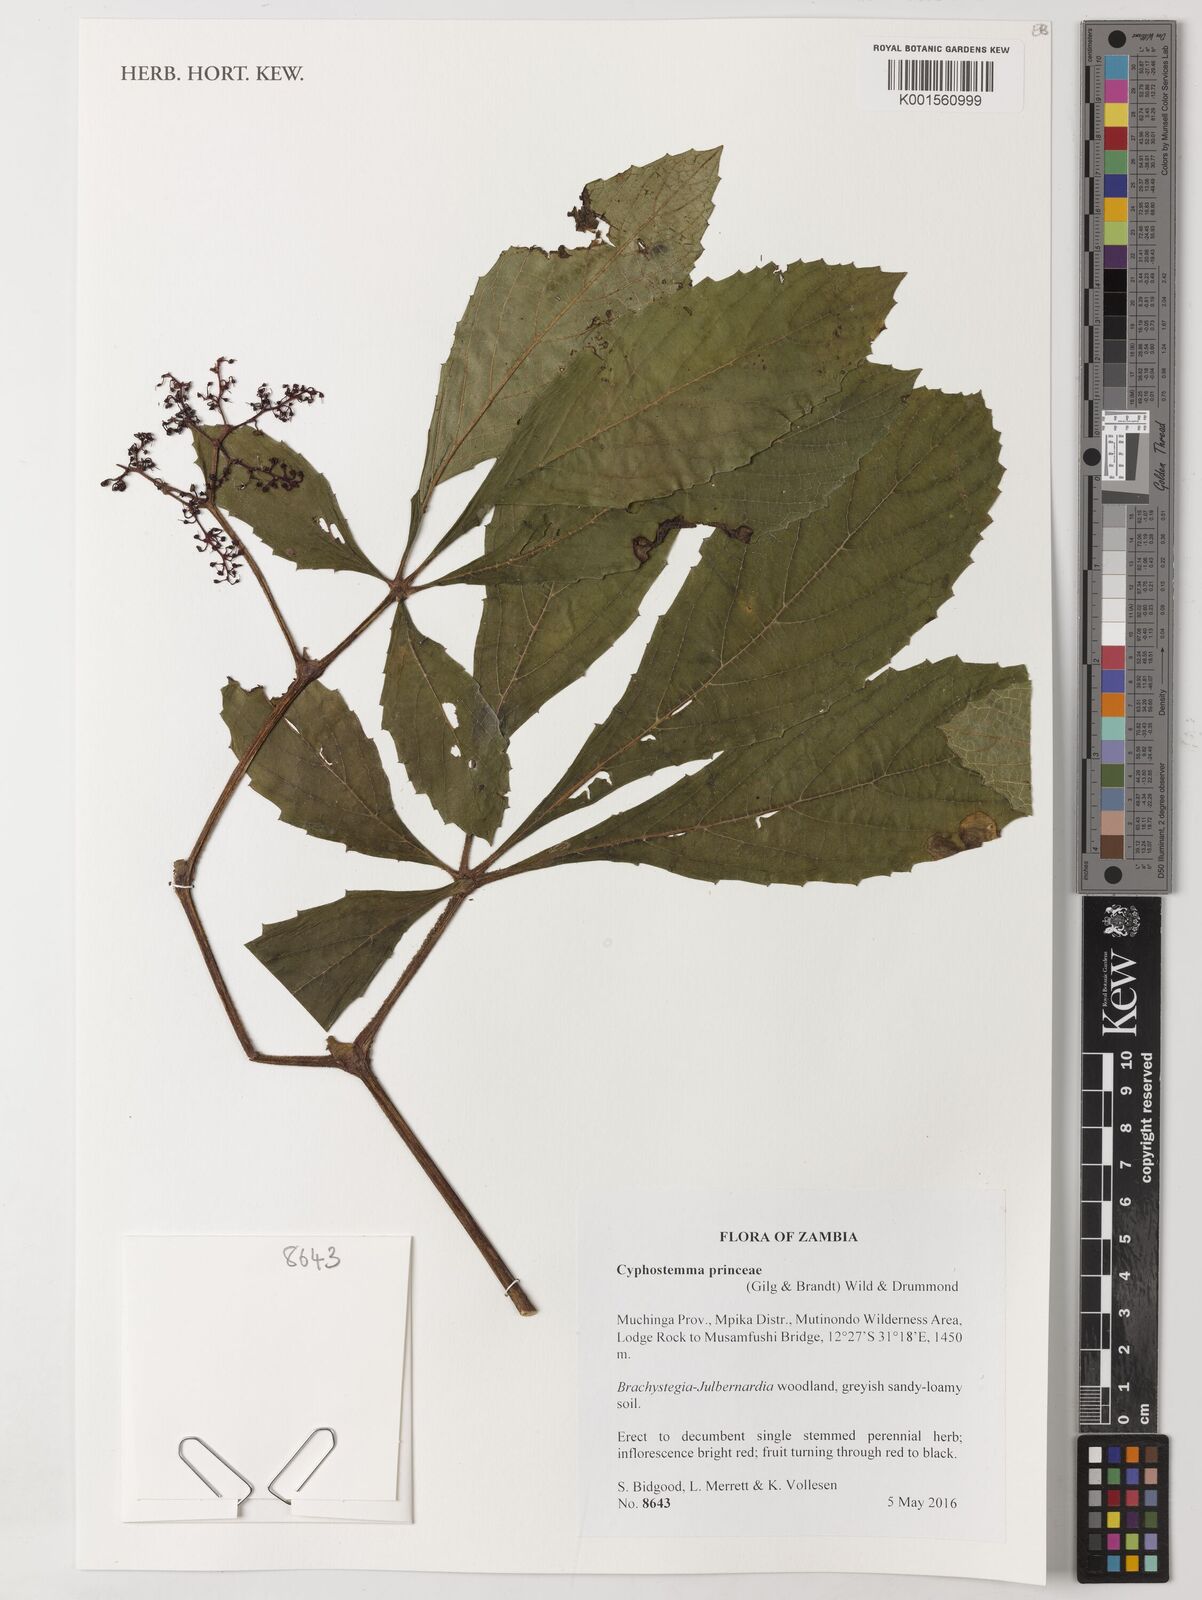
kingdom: Plantae
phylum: Tracheophyta
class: Magnoliopsida
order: Vitales
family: Vitaceae
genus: Cyphostemma
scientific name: Cyphostemma princeae
